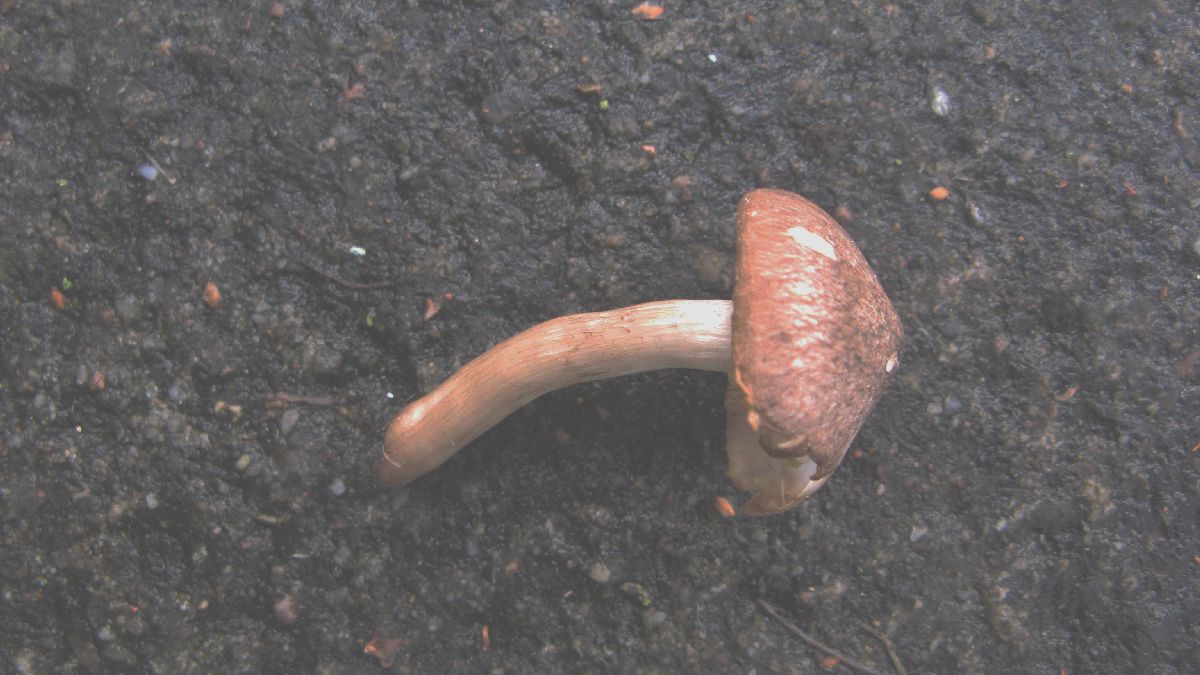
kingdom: Fungi
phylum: Basidiomycota
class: Agaricomycetes
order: Agaricales
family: Tricholomataceae
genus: Tricholoma
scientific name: Tricholoma scalpturatum
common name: gulplettet ridderhat
